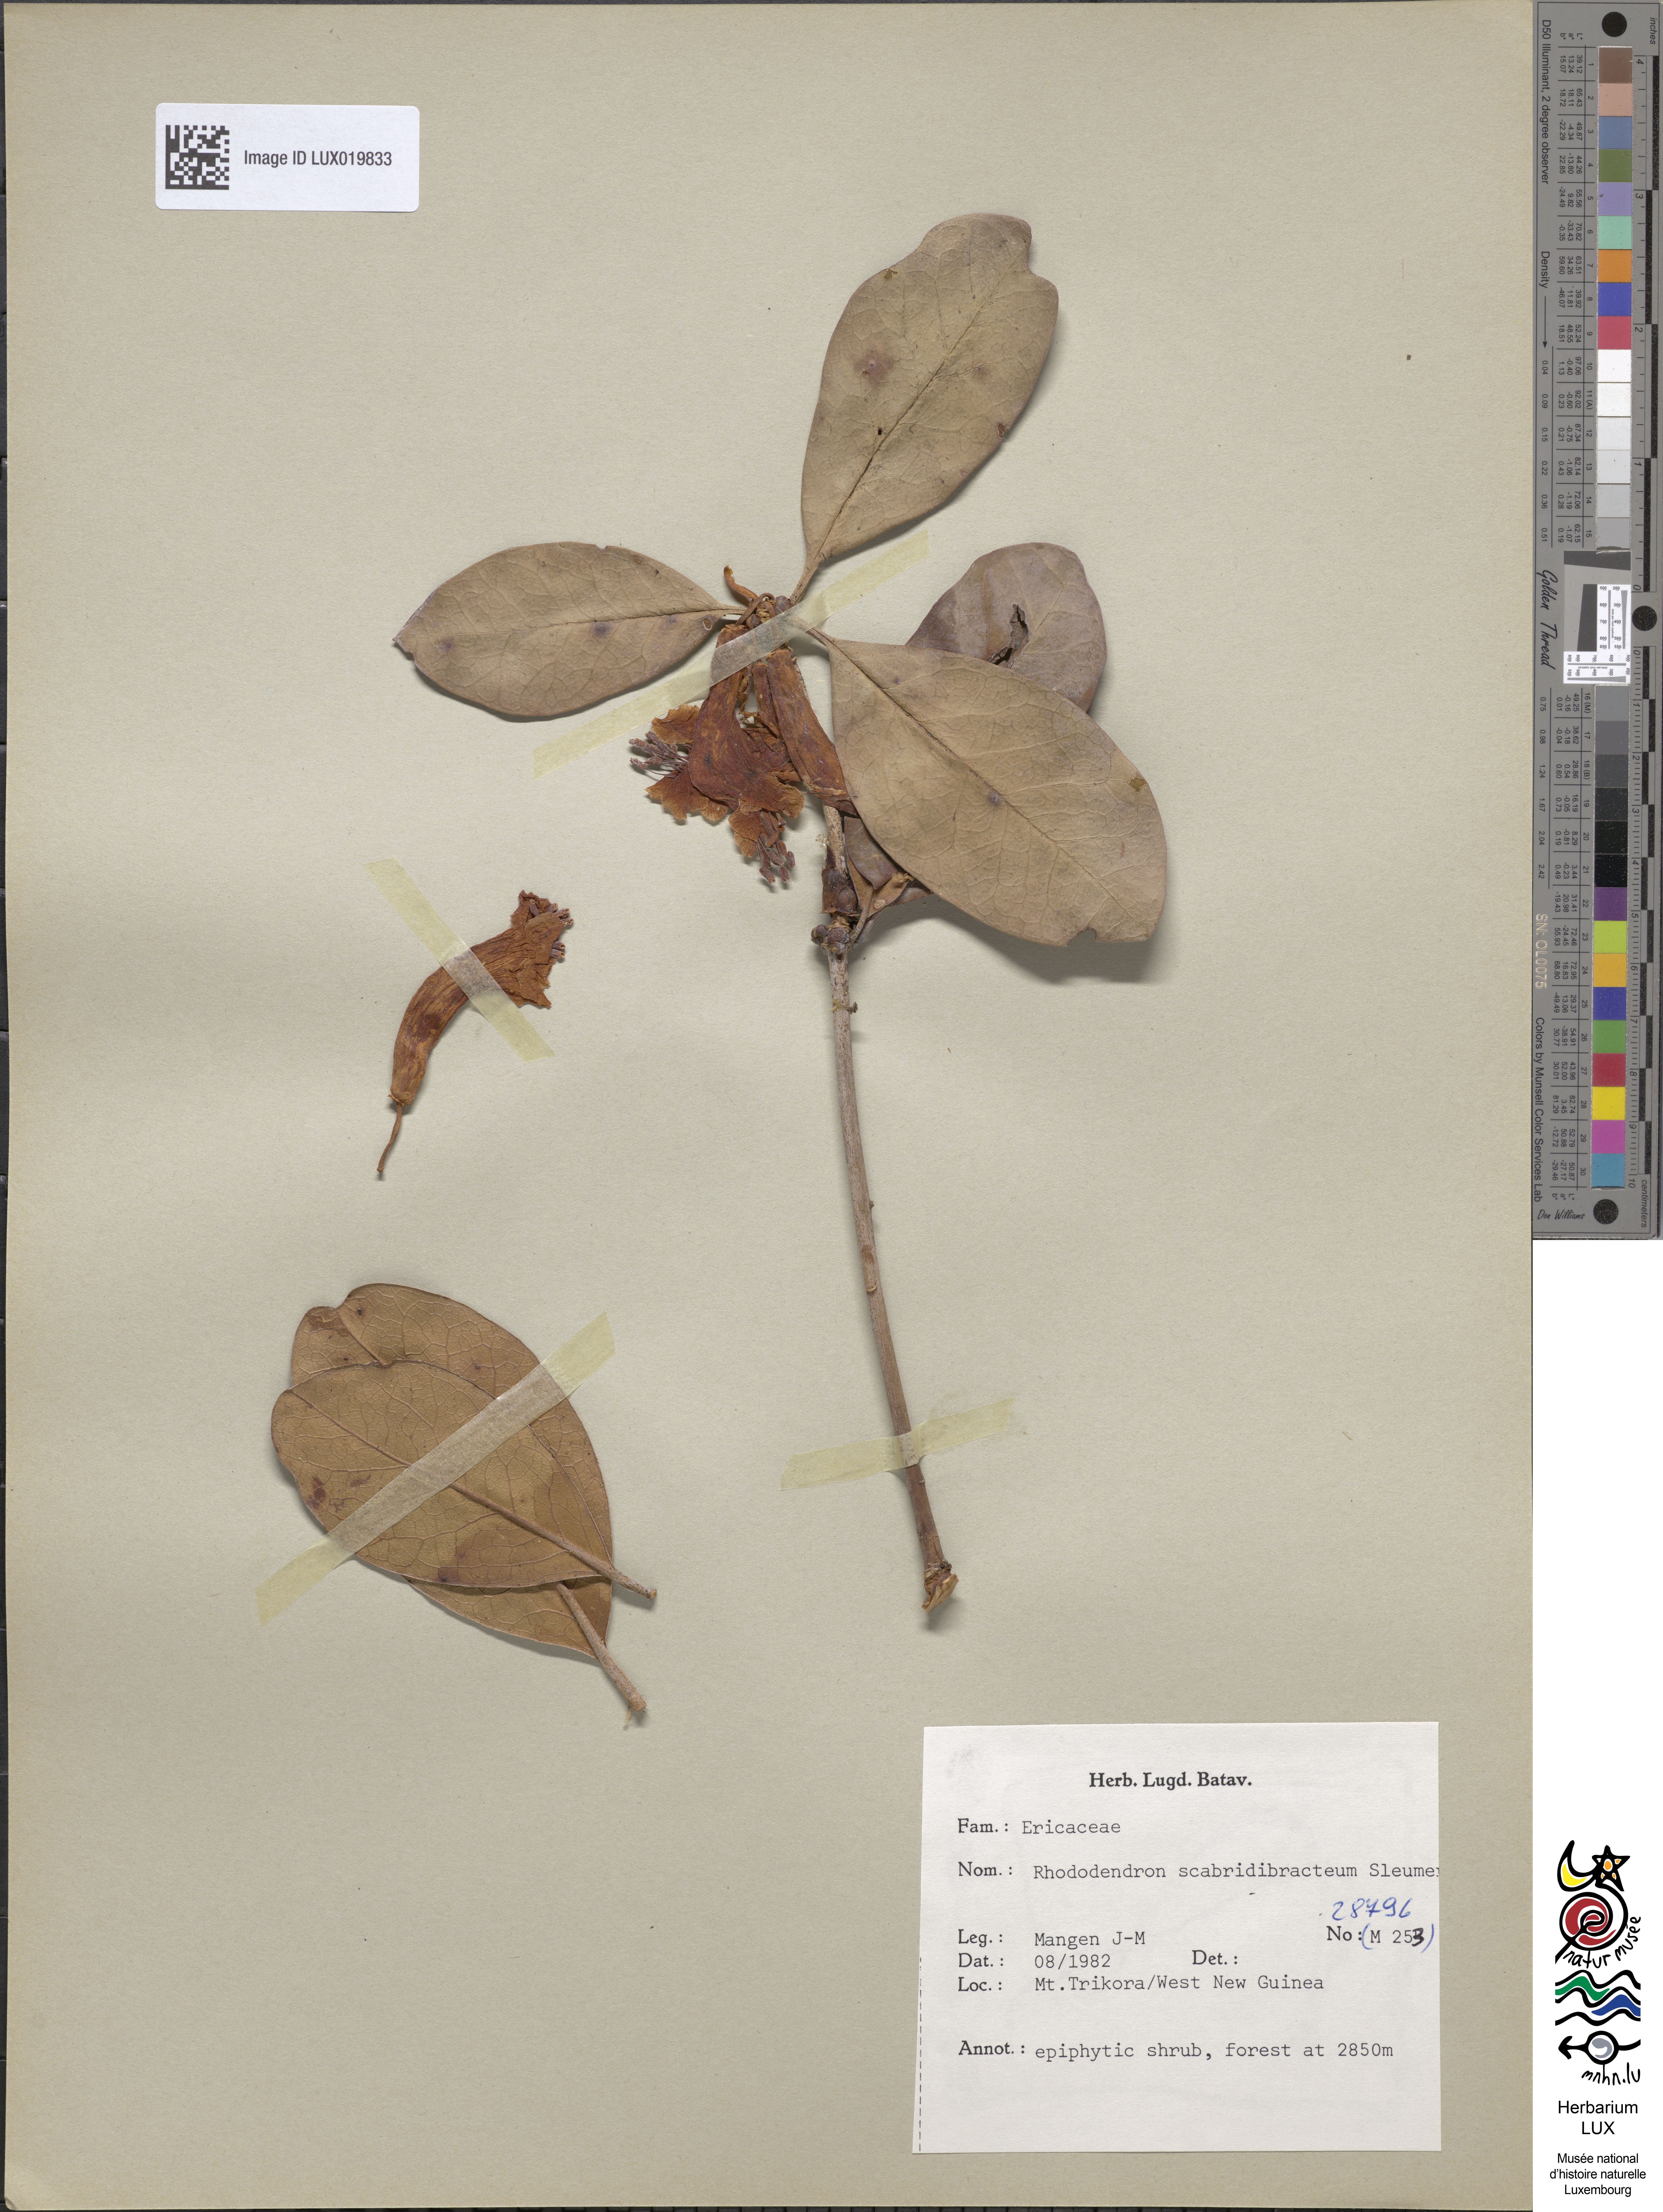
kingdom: Plantae
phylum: Tracheophyta
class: Magnoliopsida
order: Ericales
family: Ericaceae
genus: Rhododendron
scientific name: Rhododendron scabridibracteum
